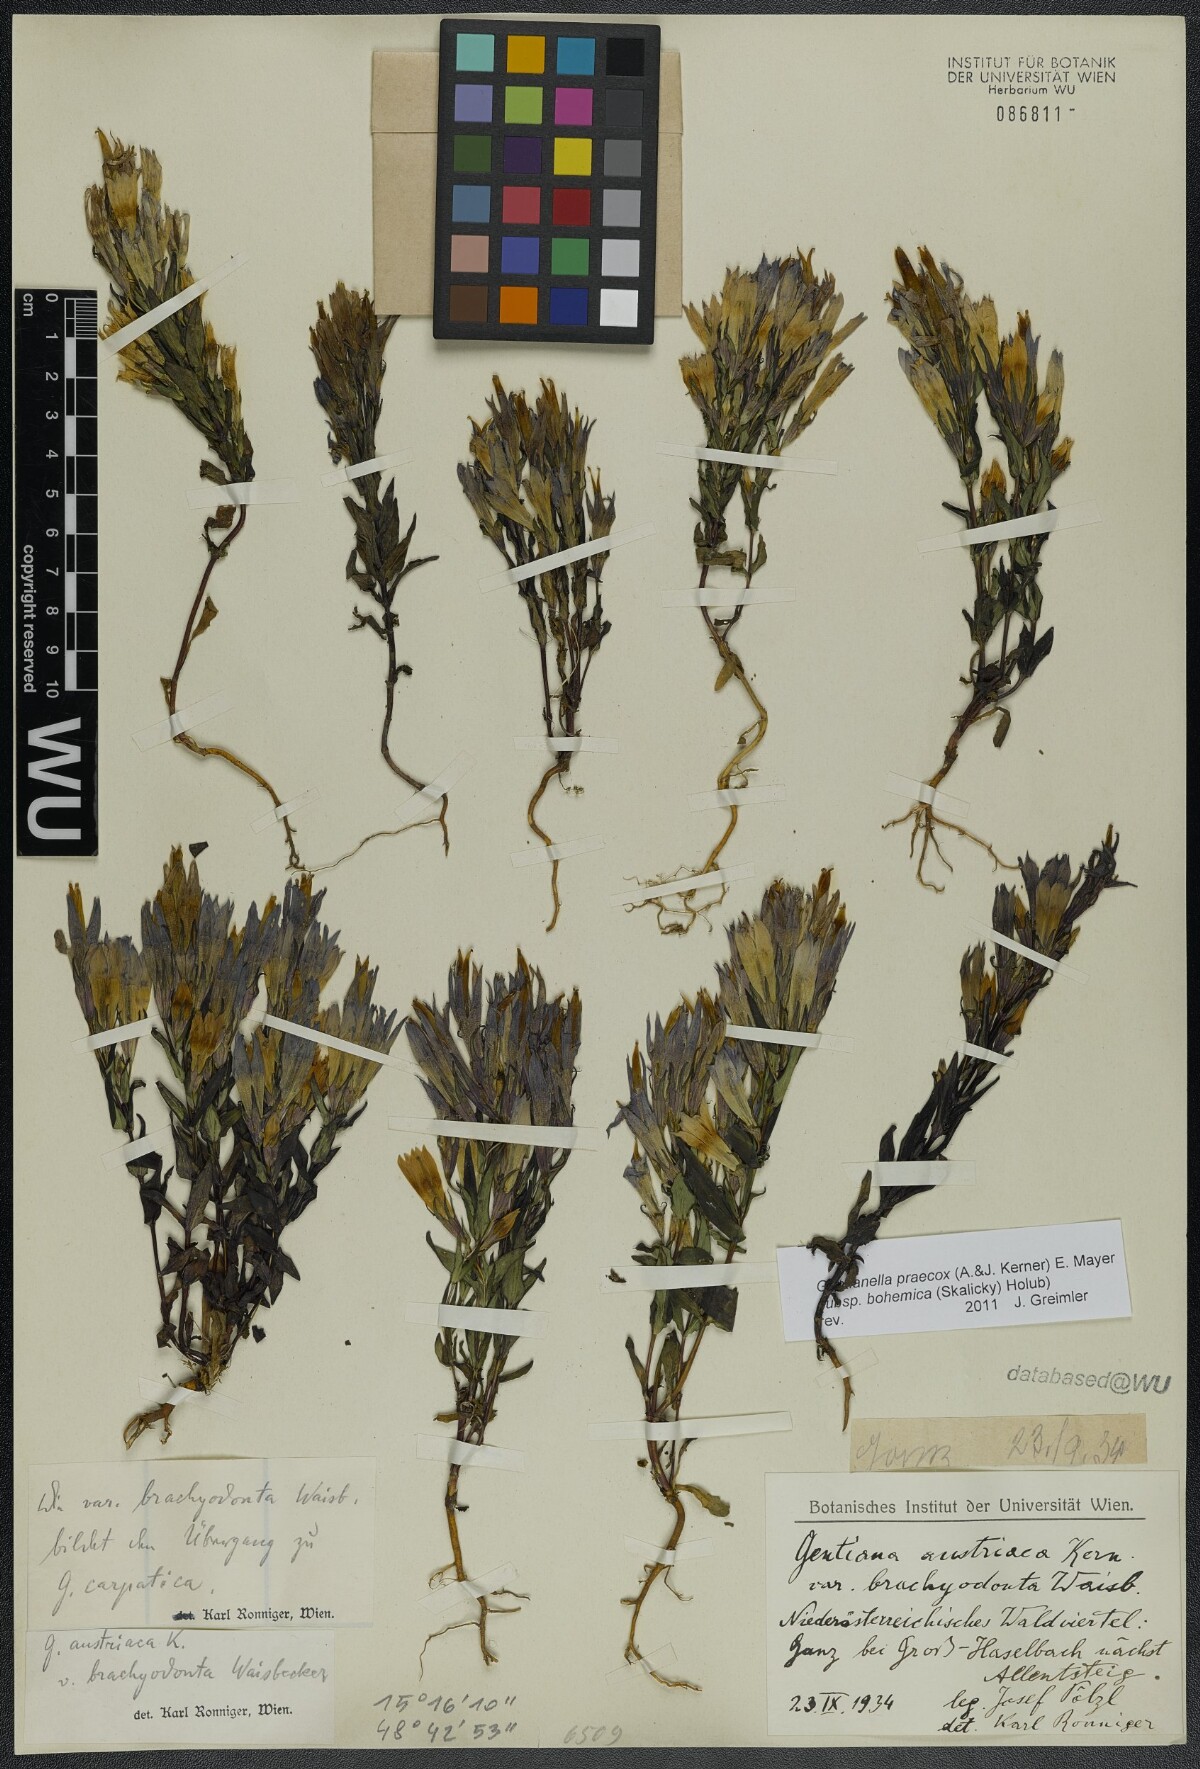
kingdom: Plantae
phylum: Tracheophyta
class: Magnoliopsida
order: Gentianales
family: Gentianaceae
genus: Gentianella
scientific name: Gentianella praecox
